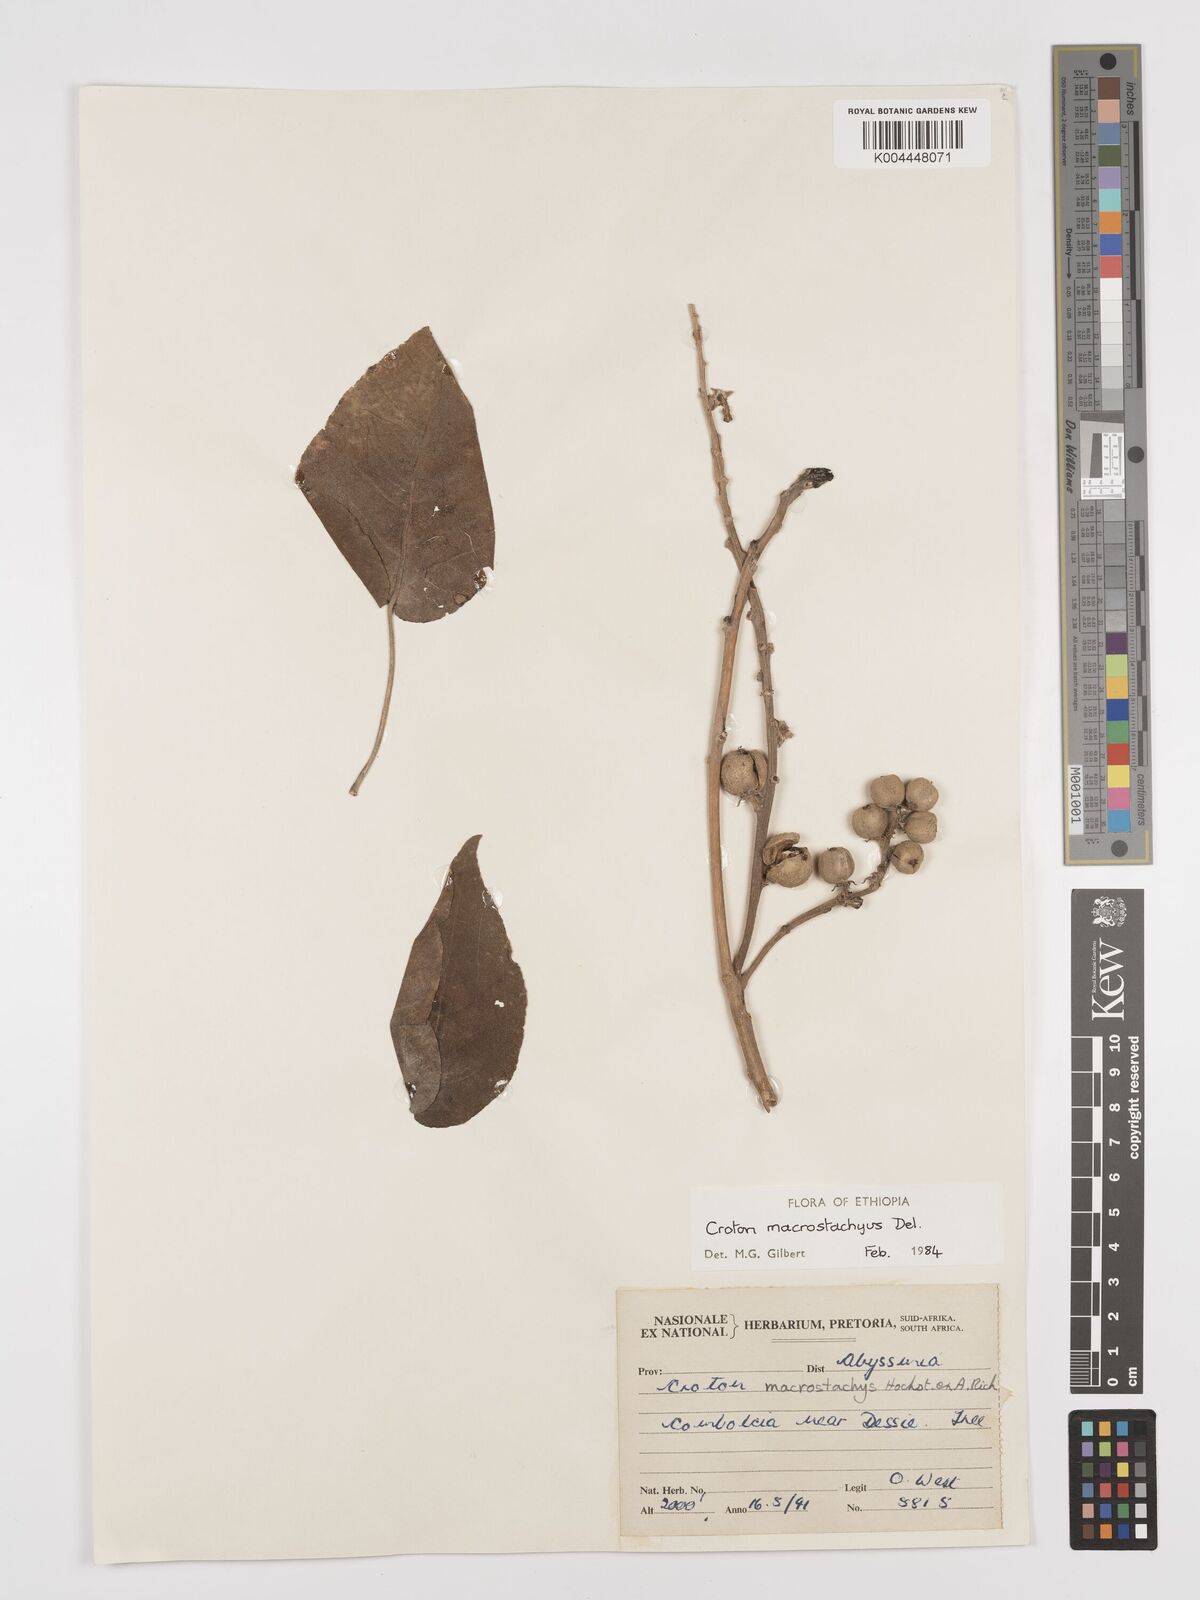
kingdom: Plantae
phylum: Tracheophyta
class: Magnoliopsida
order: Malpighiales
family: Euphorbiaceae
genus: Croton
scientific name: Croton macrostachyus
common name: Mutundu
